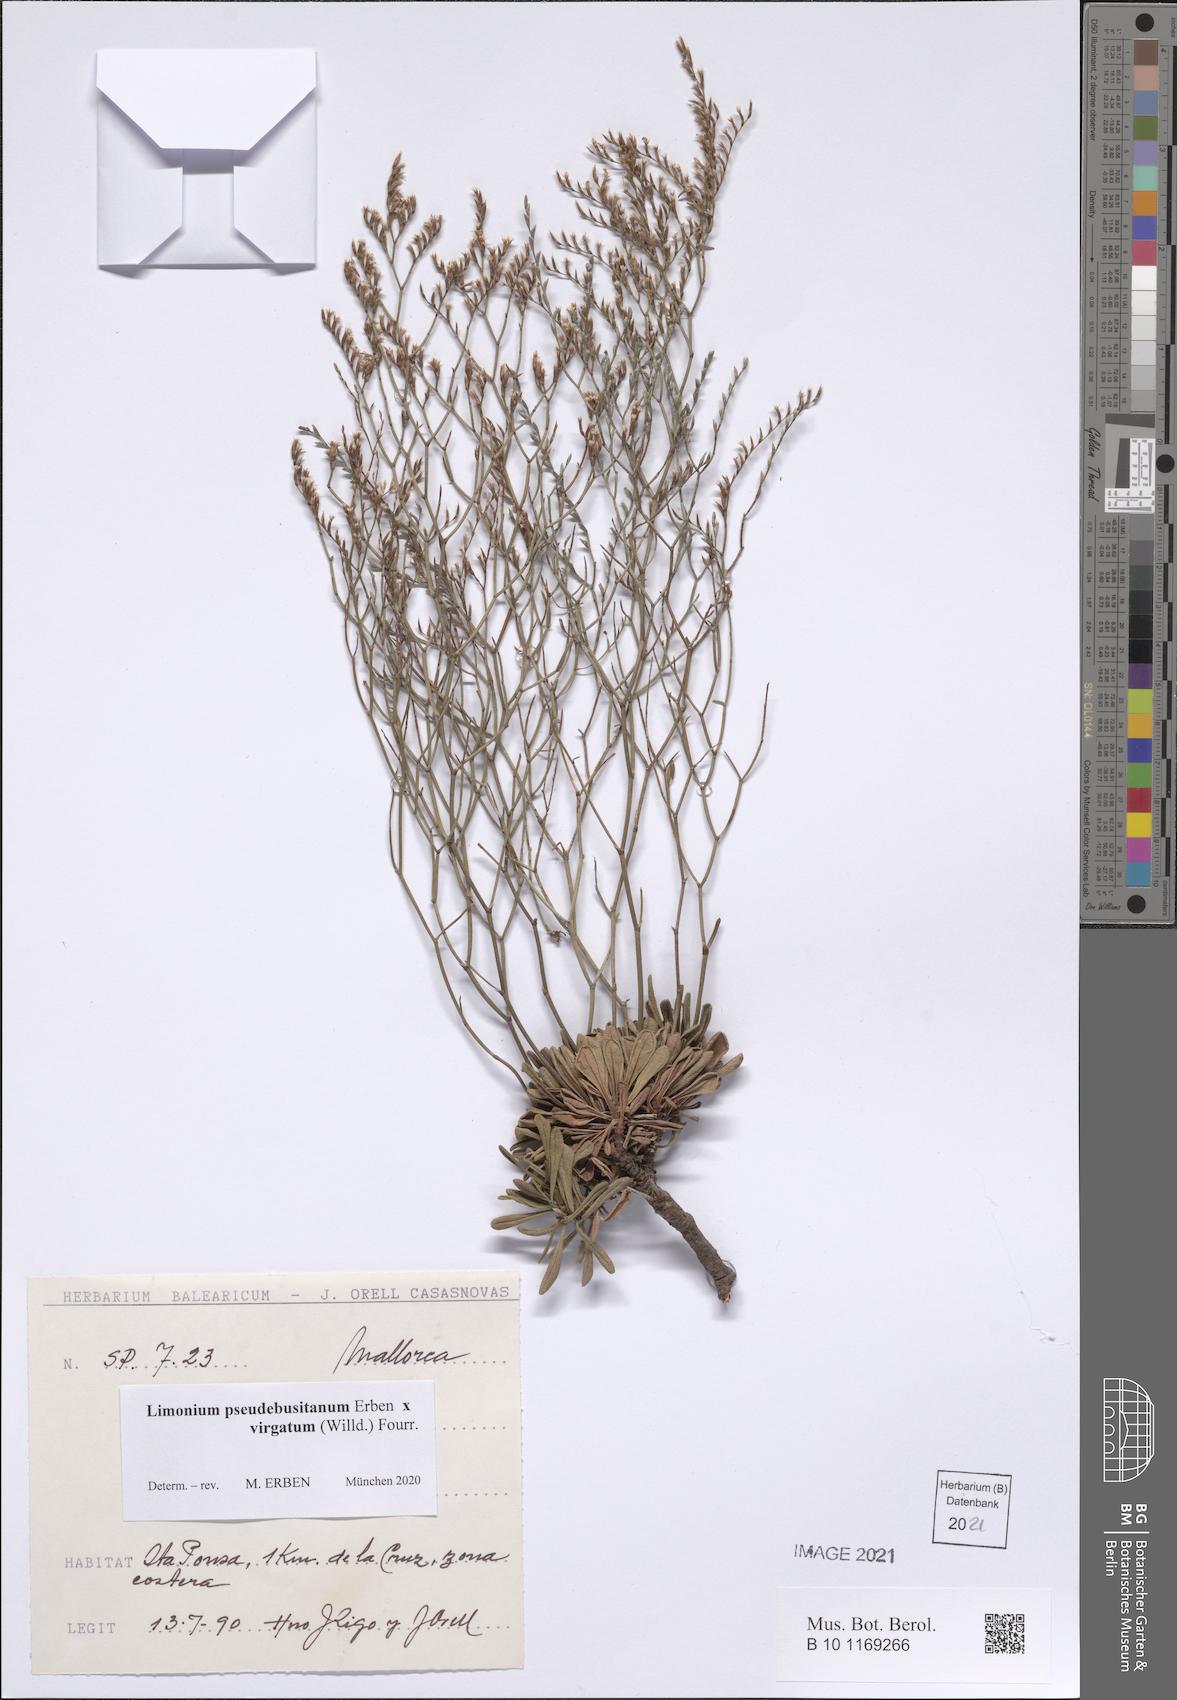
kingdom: Plantae
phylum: Tracheophyta
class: Magnoliopsida
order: Caryophyllales
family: Plumbaginaceae
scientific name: Plumbaginaceae
